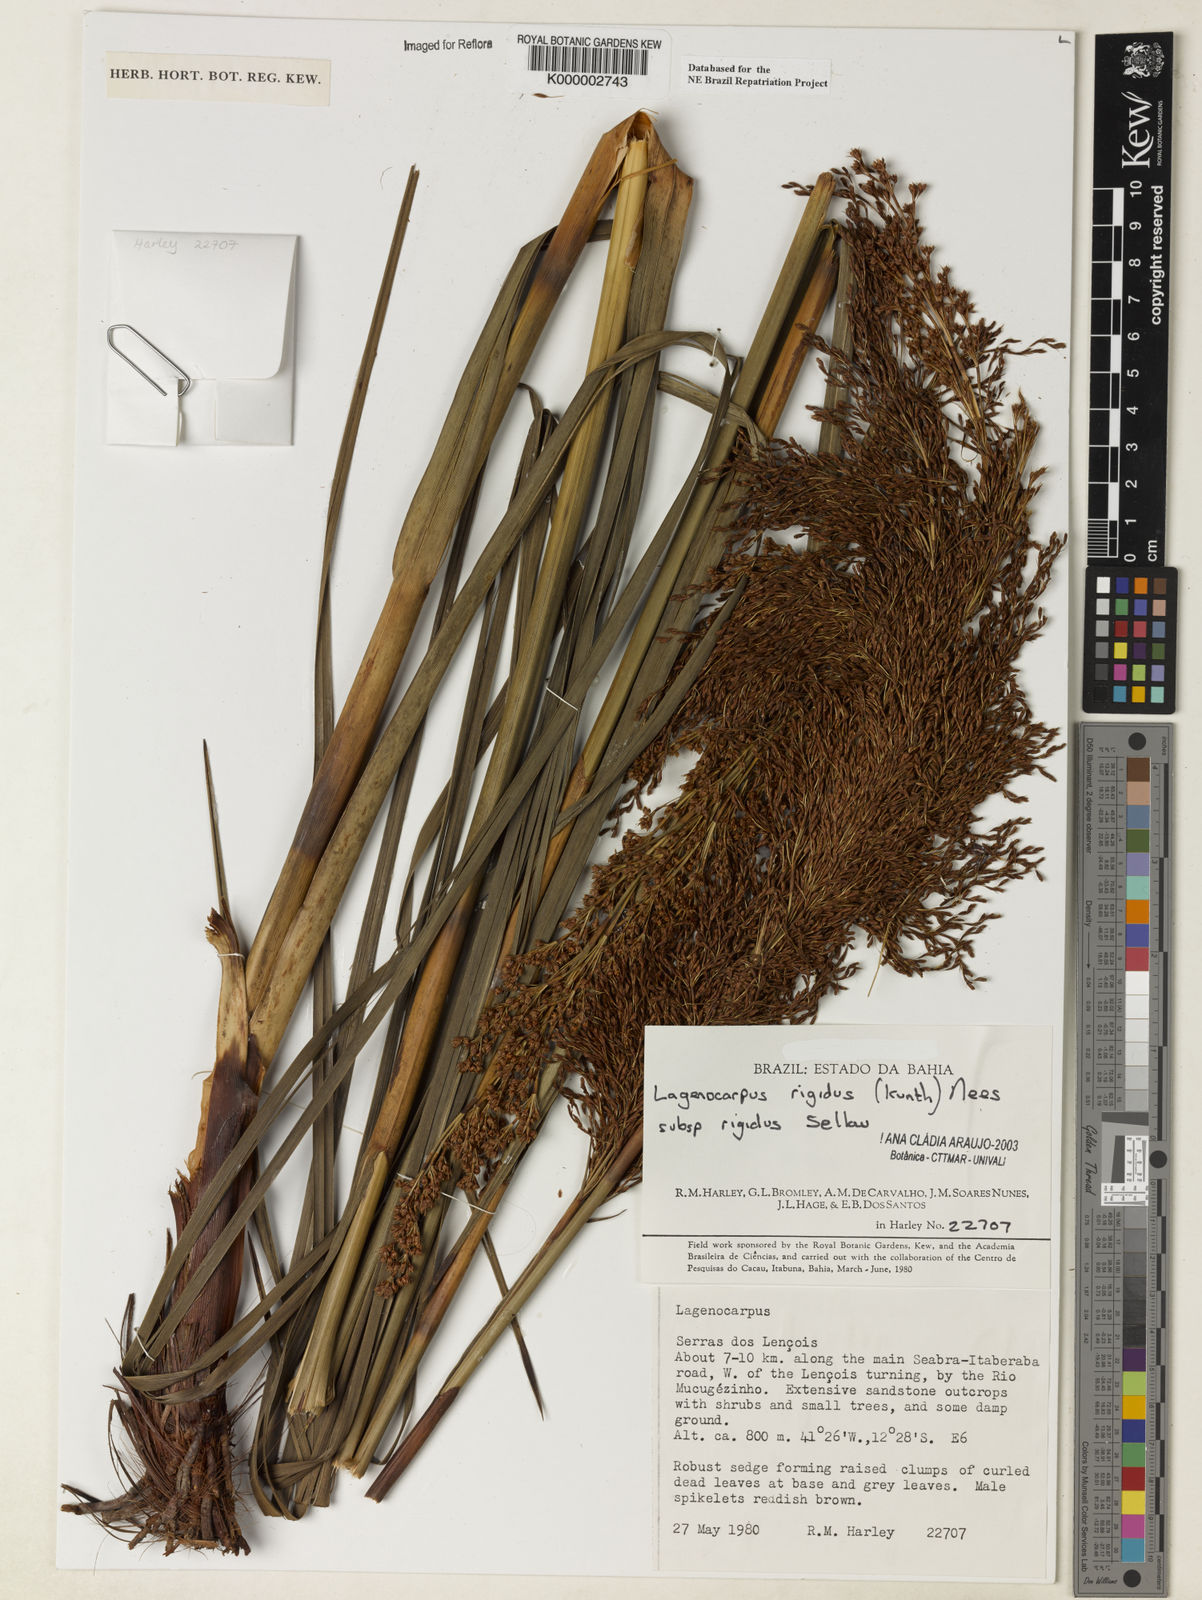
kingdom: Plantae
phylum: Tracheophyta
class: Liliopsida
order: Poales
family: Cyperaceae
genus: Lagenocarpus
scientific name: Lagenocarpus rigidus
